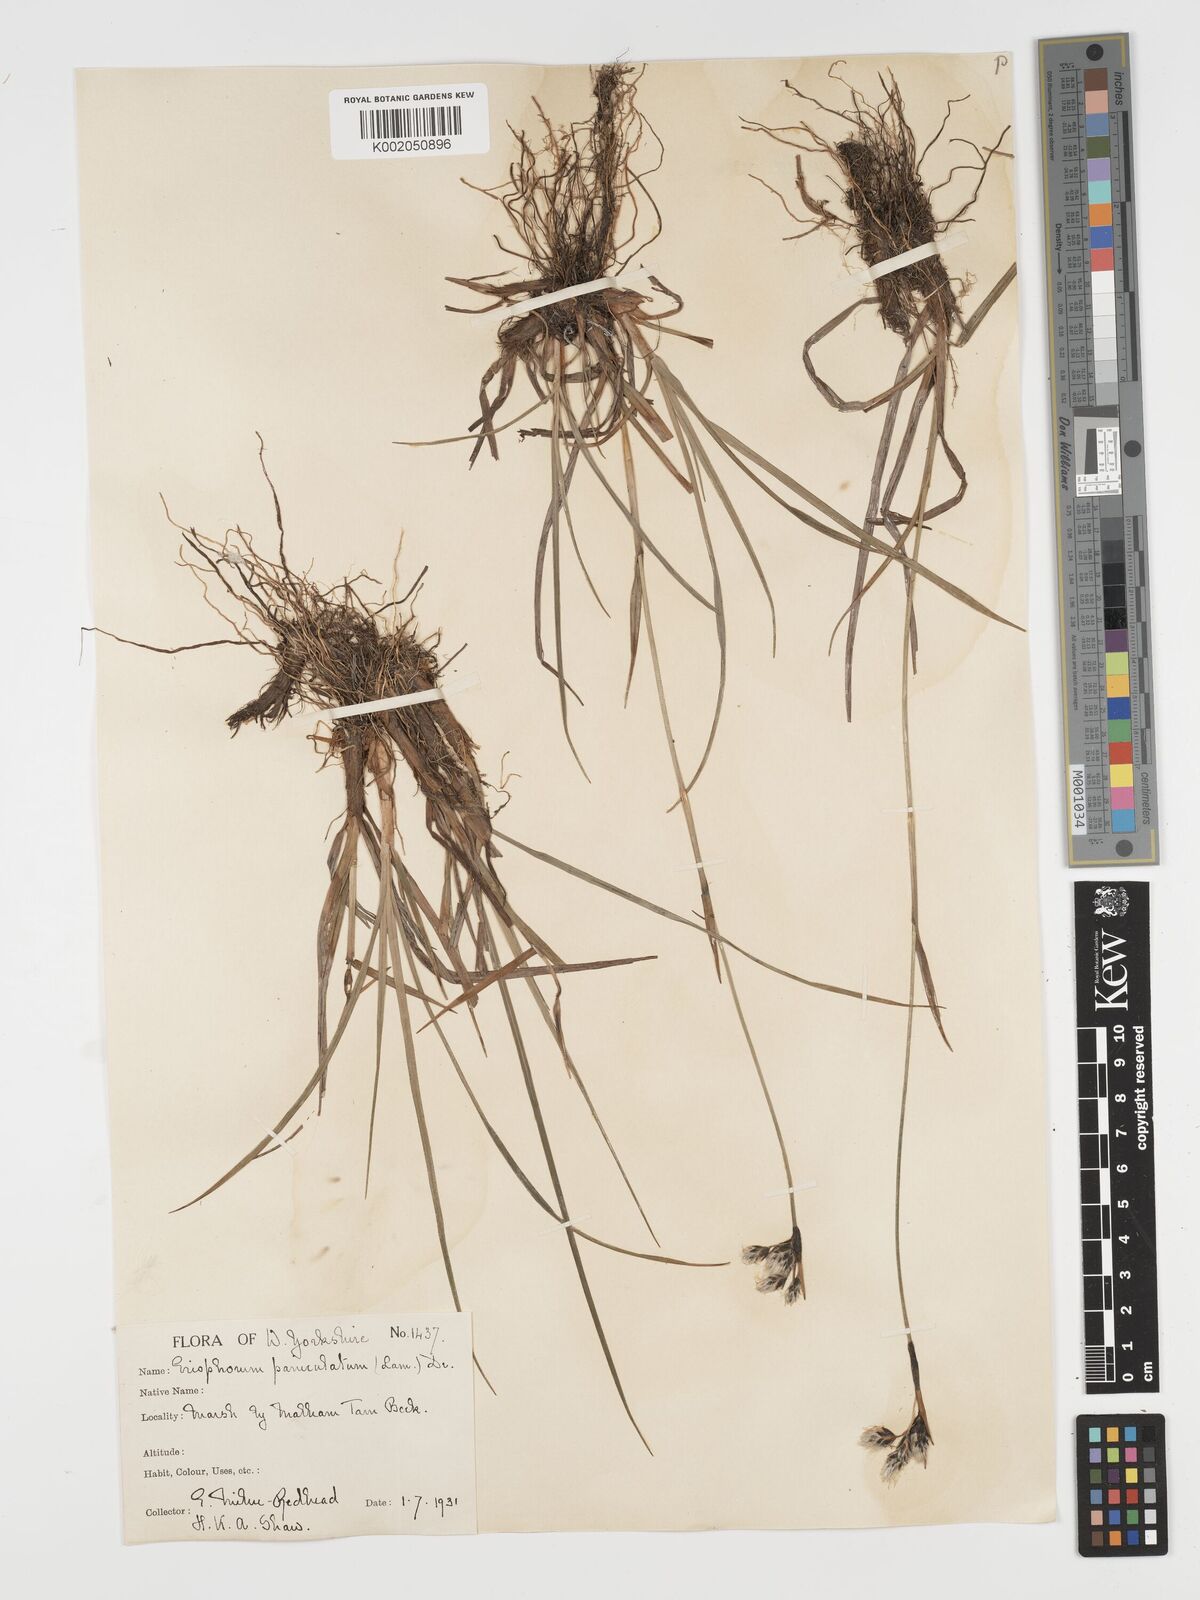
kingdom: Plantae
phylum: Tracheophyta
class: Liliopsida
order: Poales
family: Cyperaceae
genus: Eriophorum
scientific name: Eriophorum angustifolium
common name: Common cottongrass
